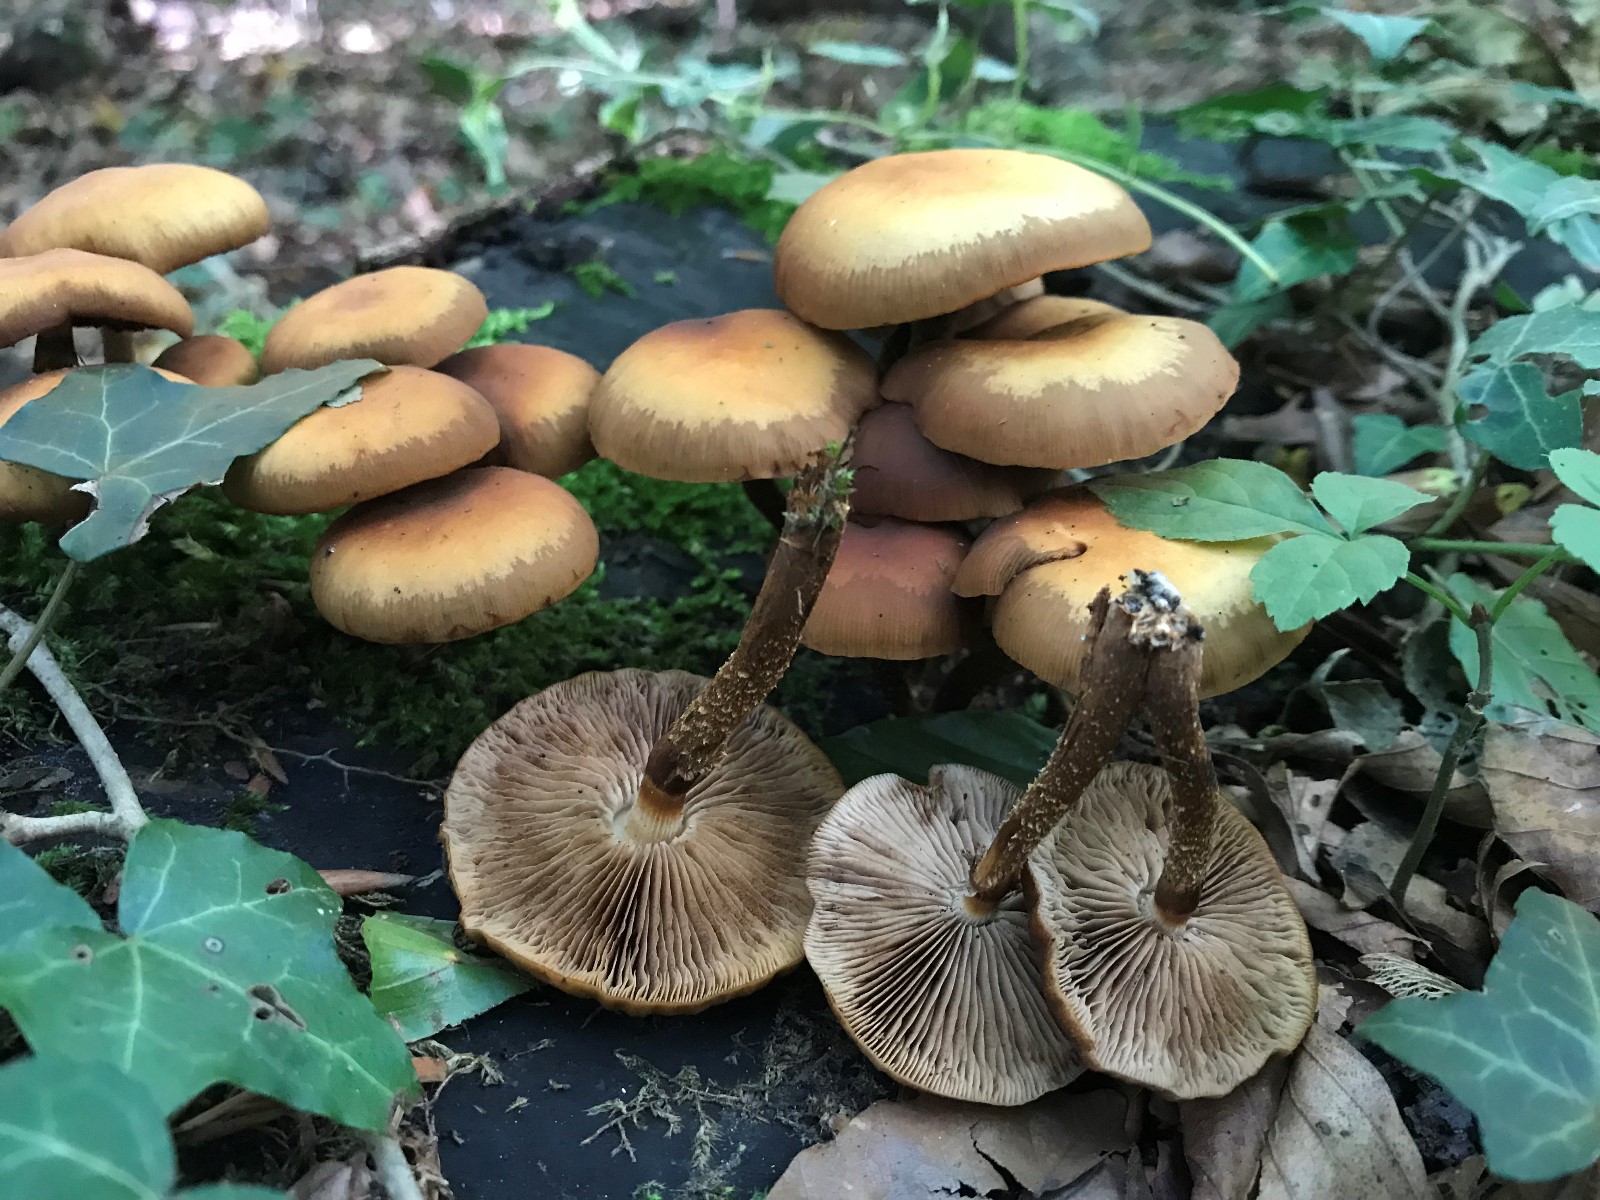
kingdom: Fungi
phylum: Basidiomycota
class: Agaricomycetes
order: Agaricales
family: Strophariaceae
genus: Kuehneromyces
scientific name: Kuehneromyces mutabilis
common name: foranderlig skælhat
